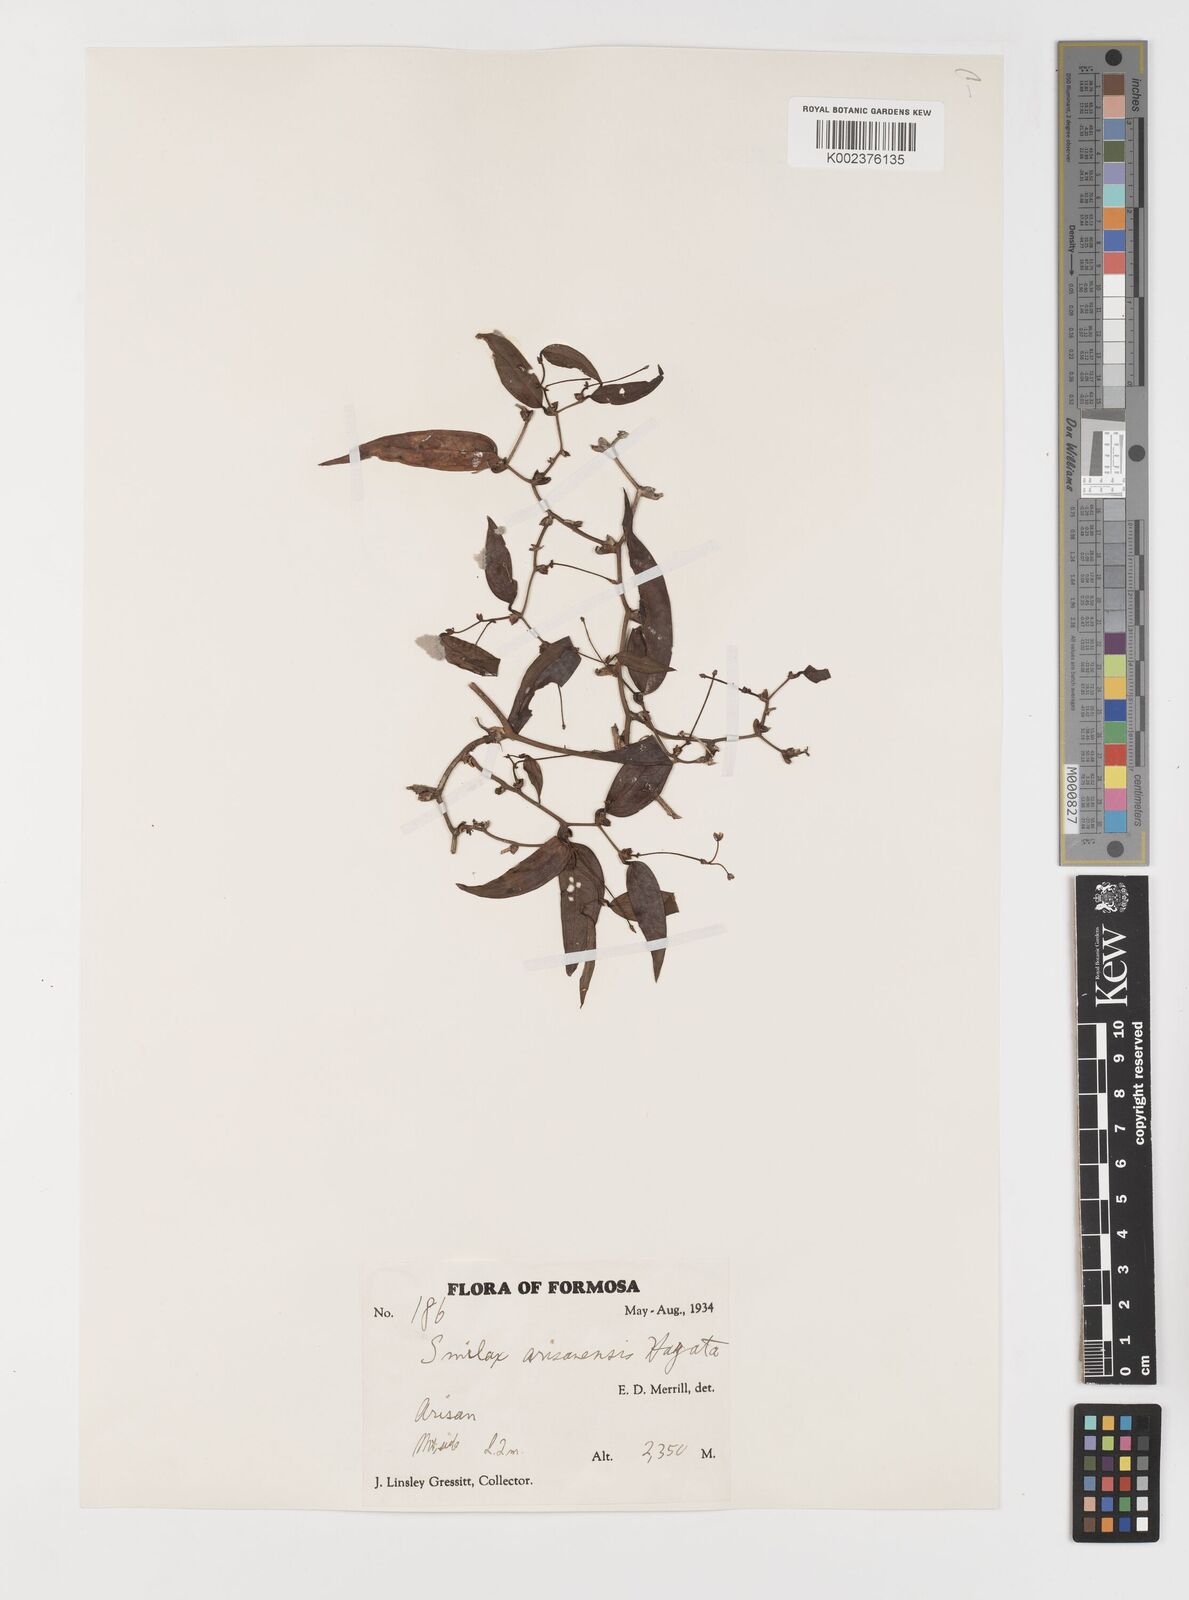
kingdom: Plantae
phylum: Tracheophyta
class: Liliopsida
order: Liliales
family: Smilacaceae
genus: Smilax
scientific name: Smilax arisanensis
